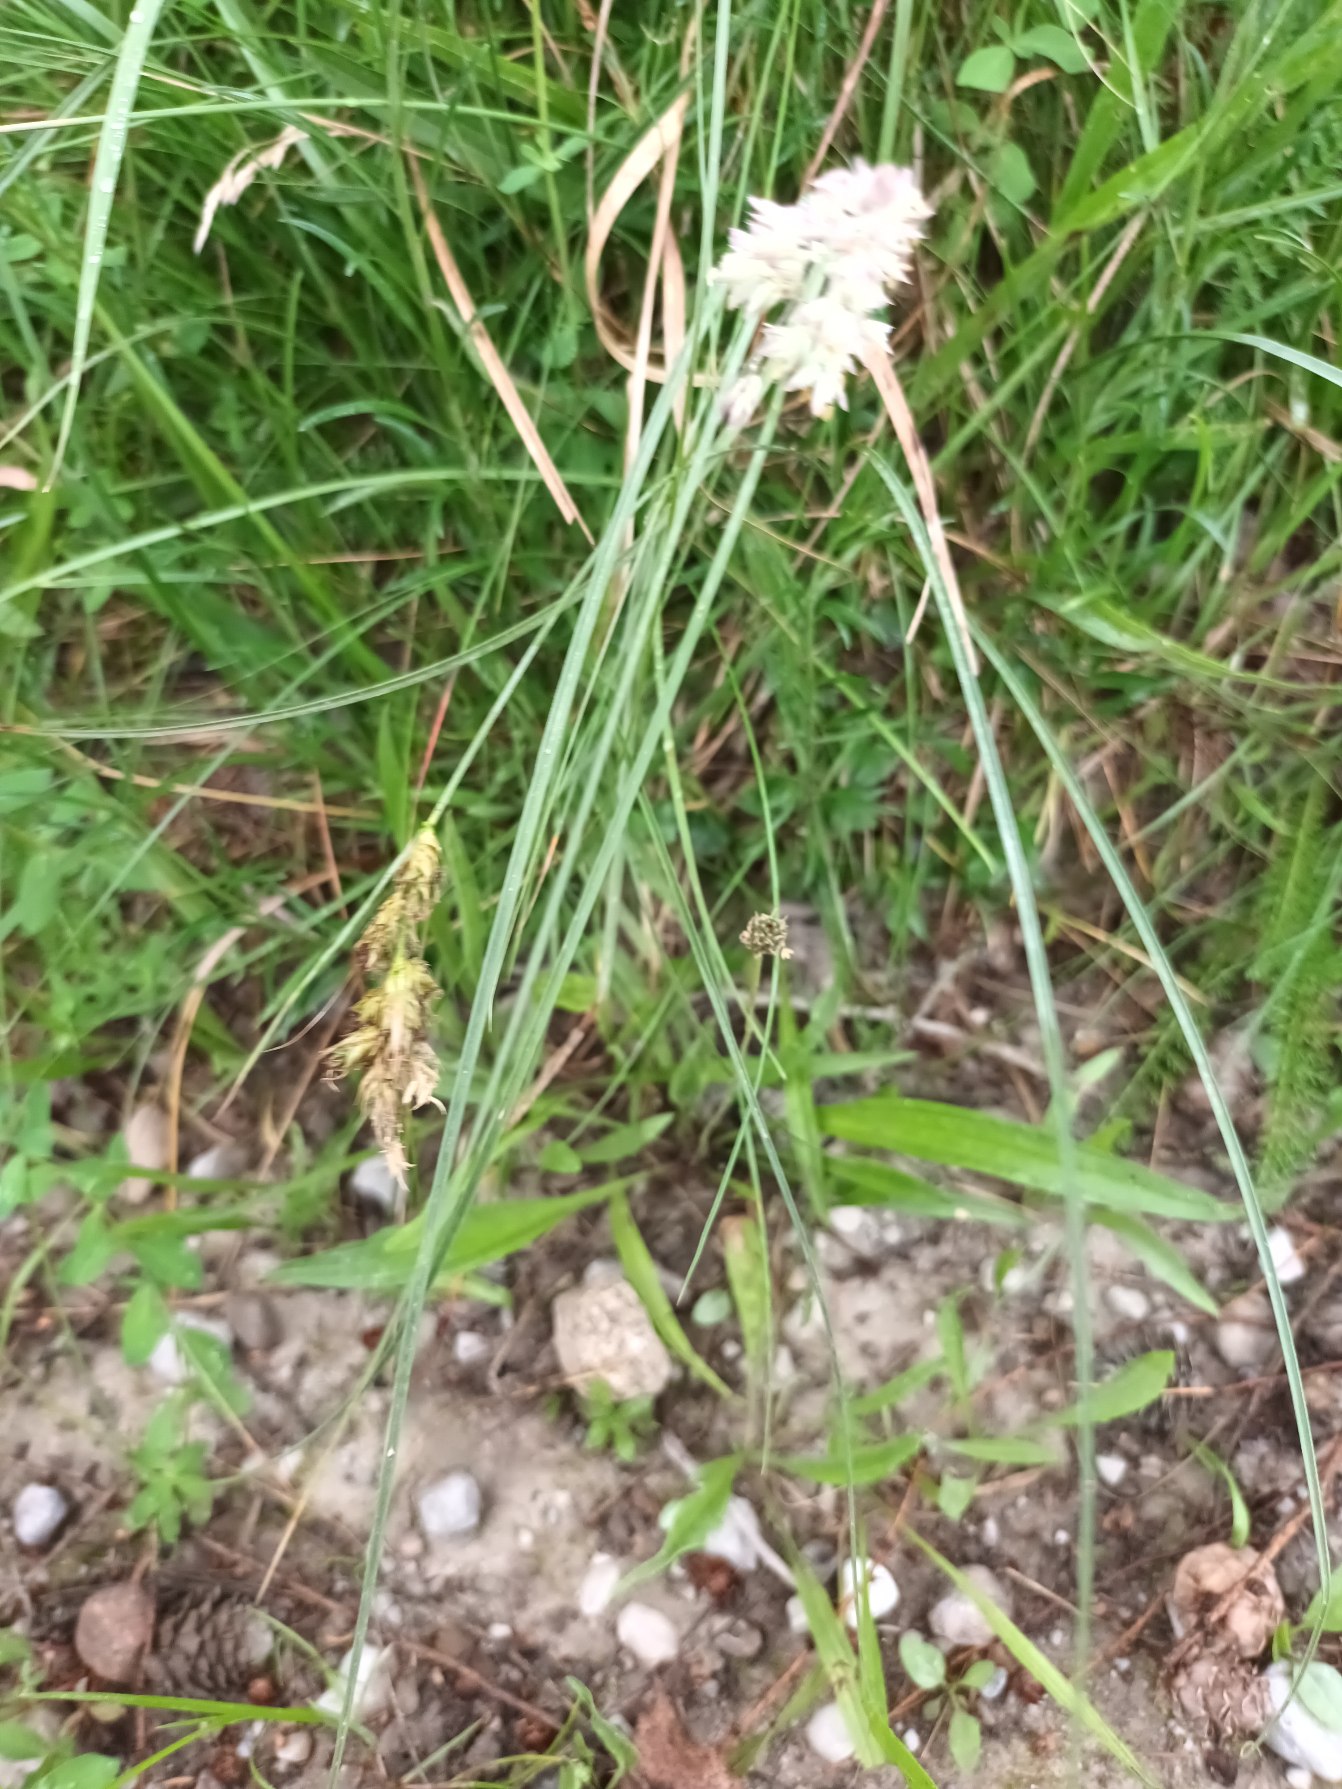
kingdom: Plantae
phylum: Tracheophyta
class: Liliopsida
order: Poales
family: Cyperaceae
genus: Carex
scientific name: Carex arenaria
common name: Sand-star
